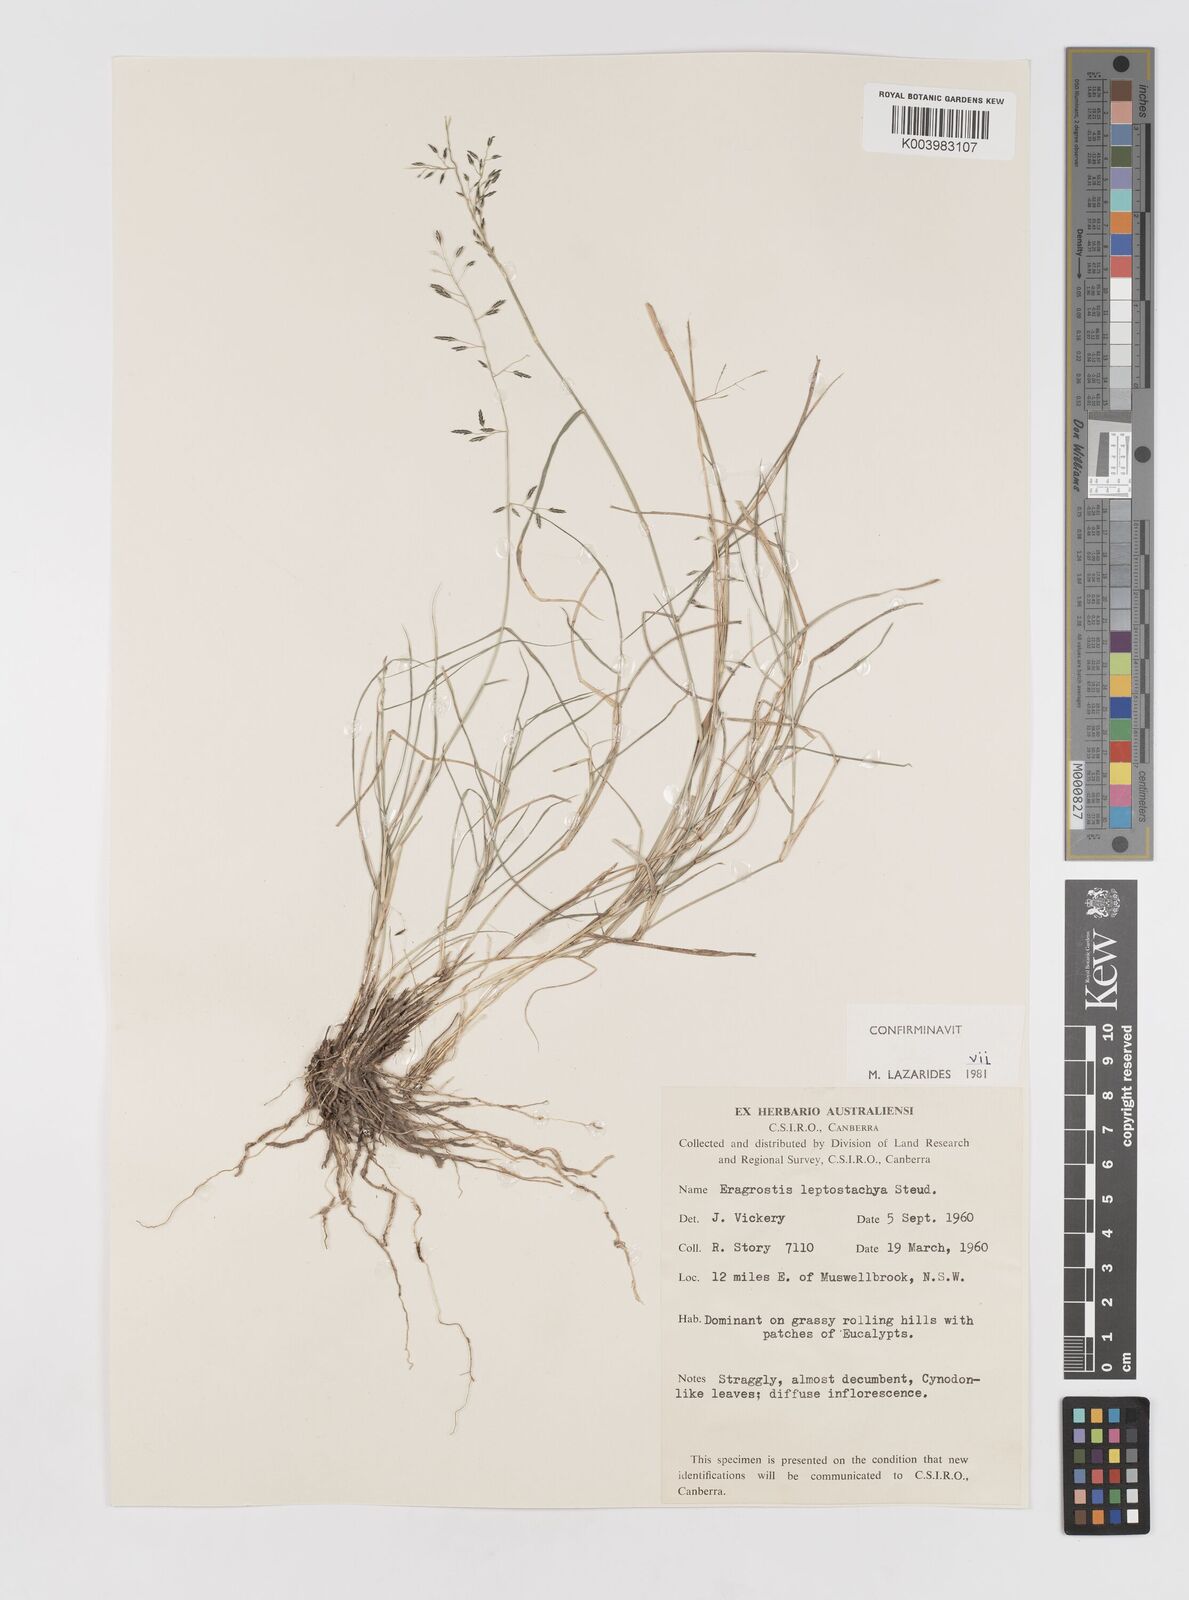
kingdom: Plantae
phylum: Tracheophyta
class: Liliopsida
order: Poales
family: Poaceae
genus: Eragrostis
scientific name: Eragrostis leptostachya
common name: Australian lovegrass
